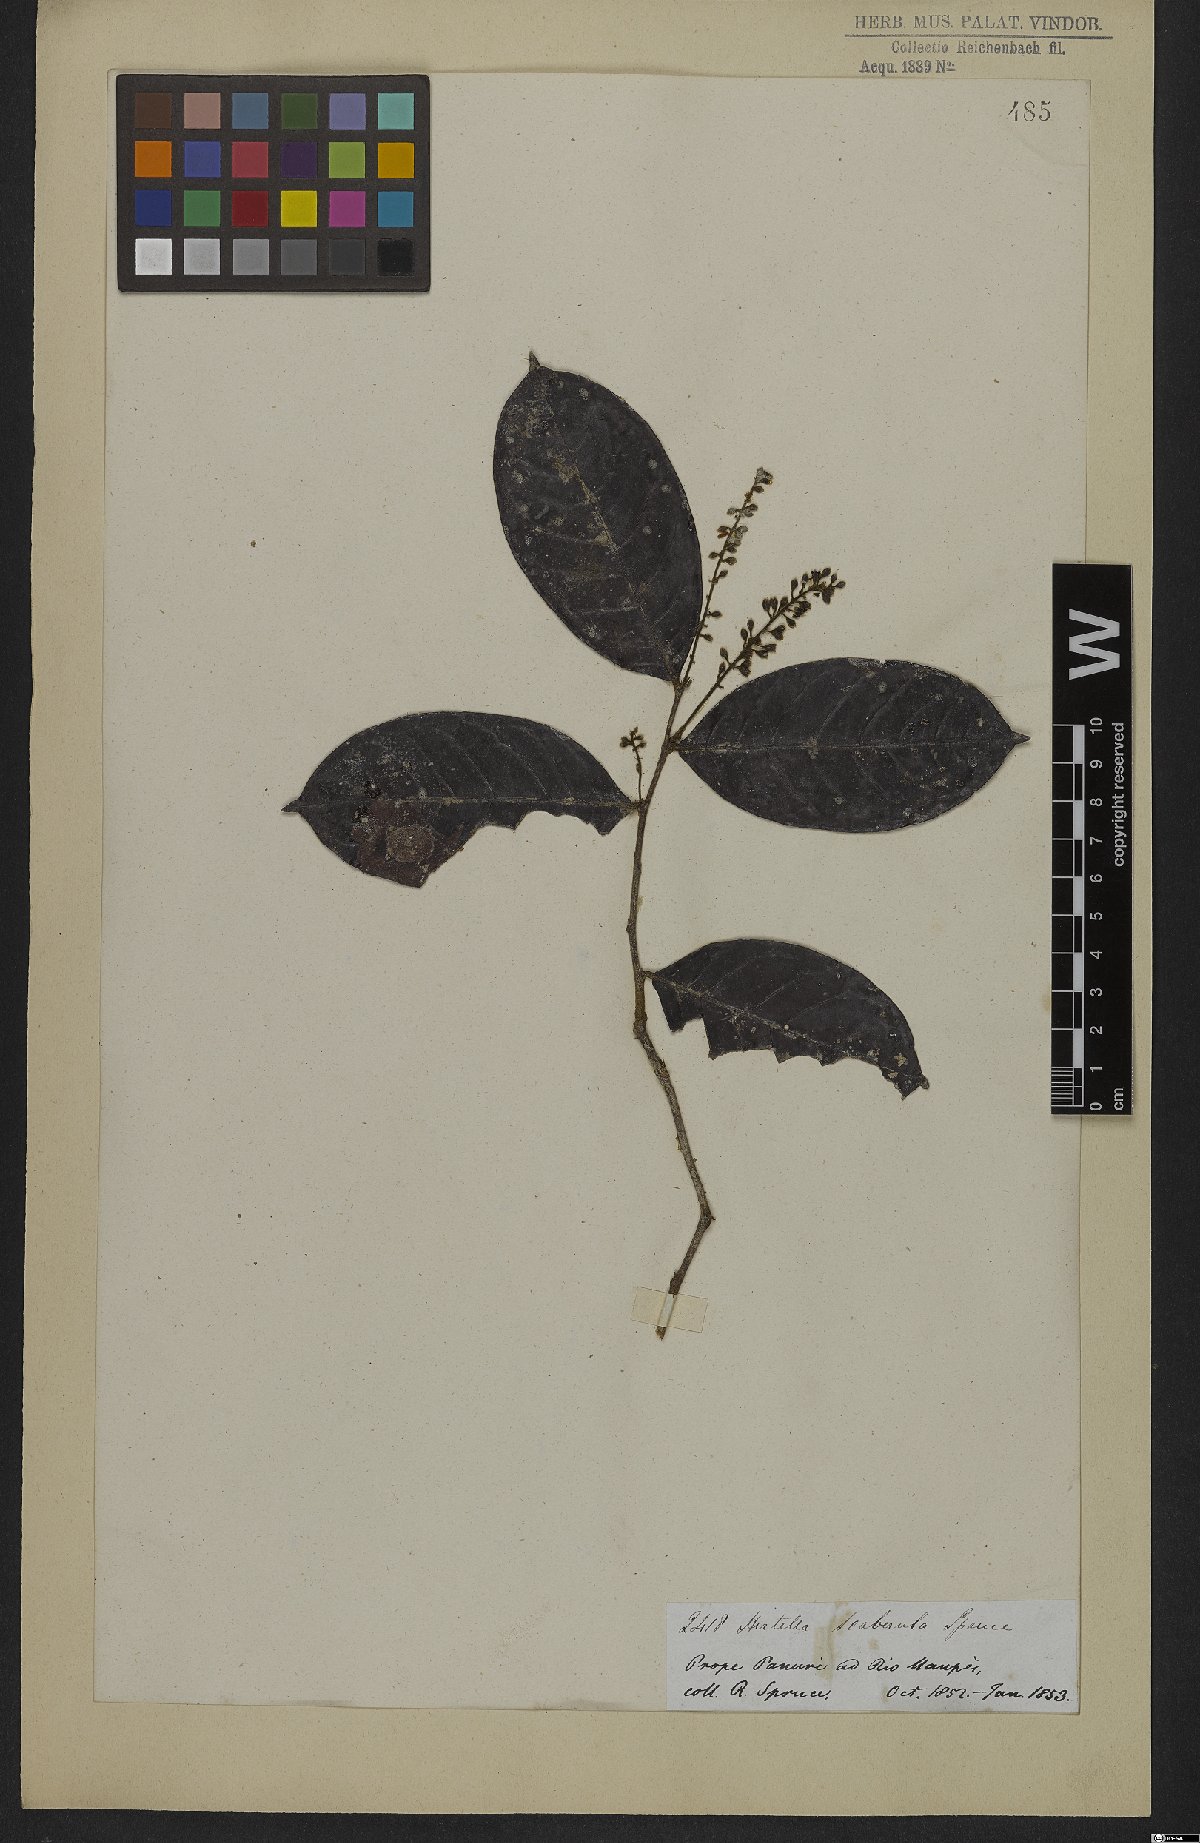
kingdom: Plantae
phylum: Tracheophyta
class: Magnoliopsida
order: Malpighiales
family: Chrysobalanaceae
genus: Hirtella
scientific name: Hirtella scaberula
